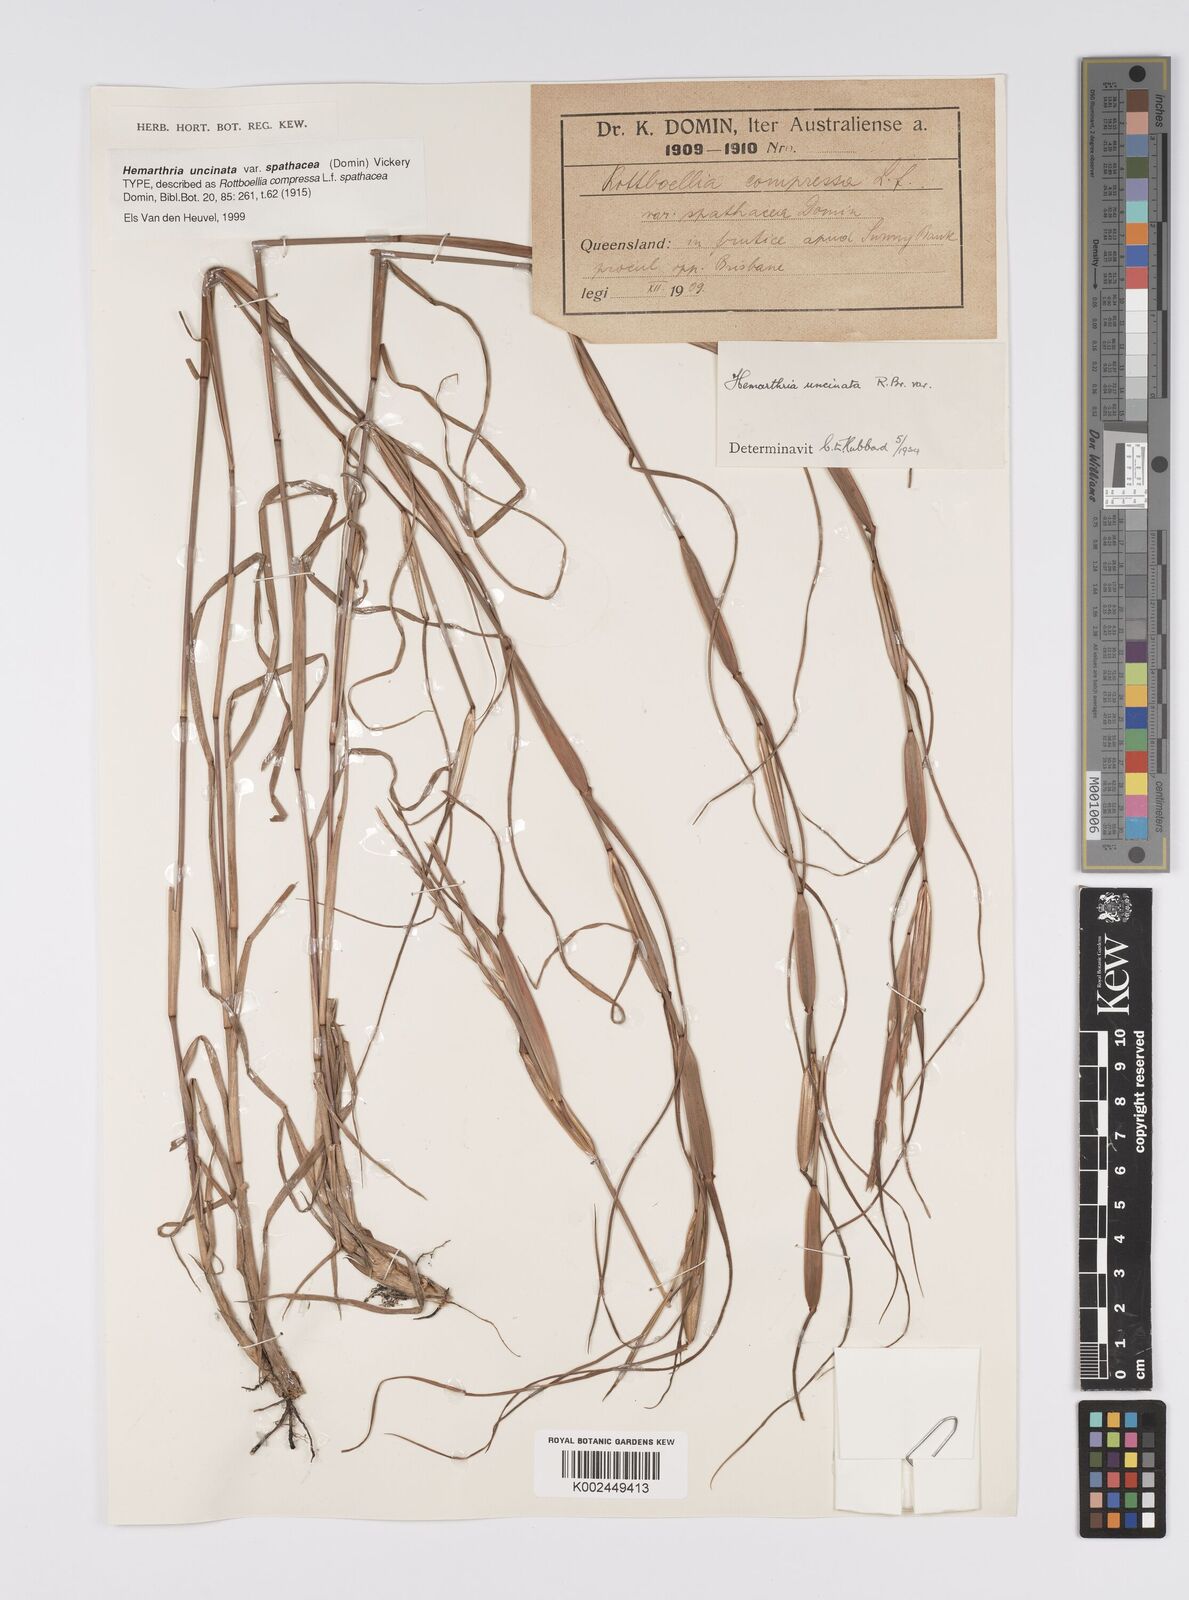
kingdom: Plantae
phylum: Tracheophyta
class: Liliopsida
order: Poales
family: Poaceae
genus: Hemarthria
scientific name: Hemarthria uncinata
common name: Matgrass
